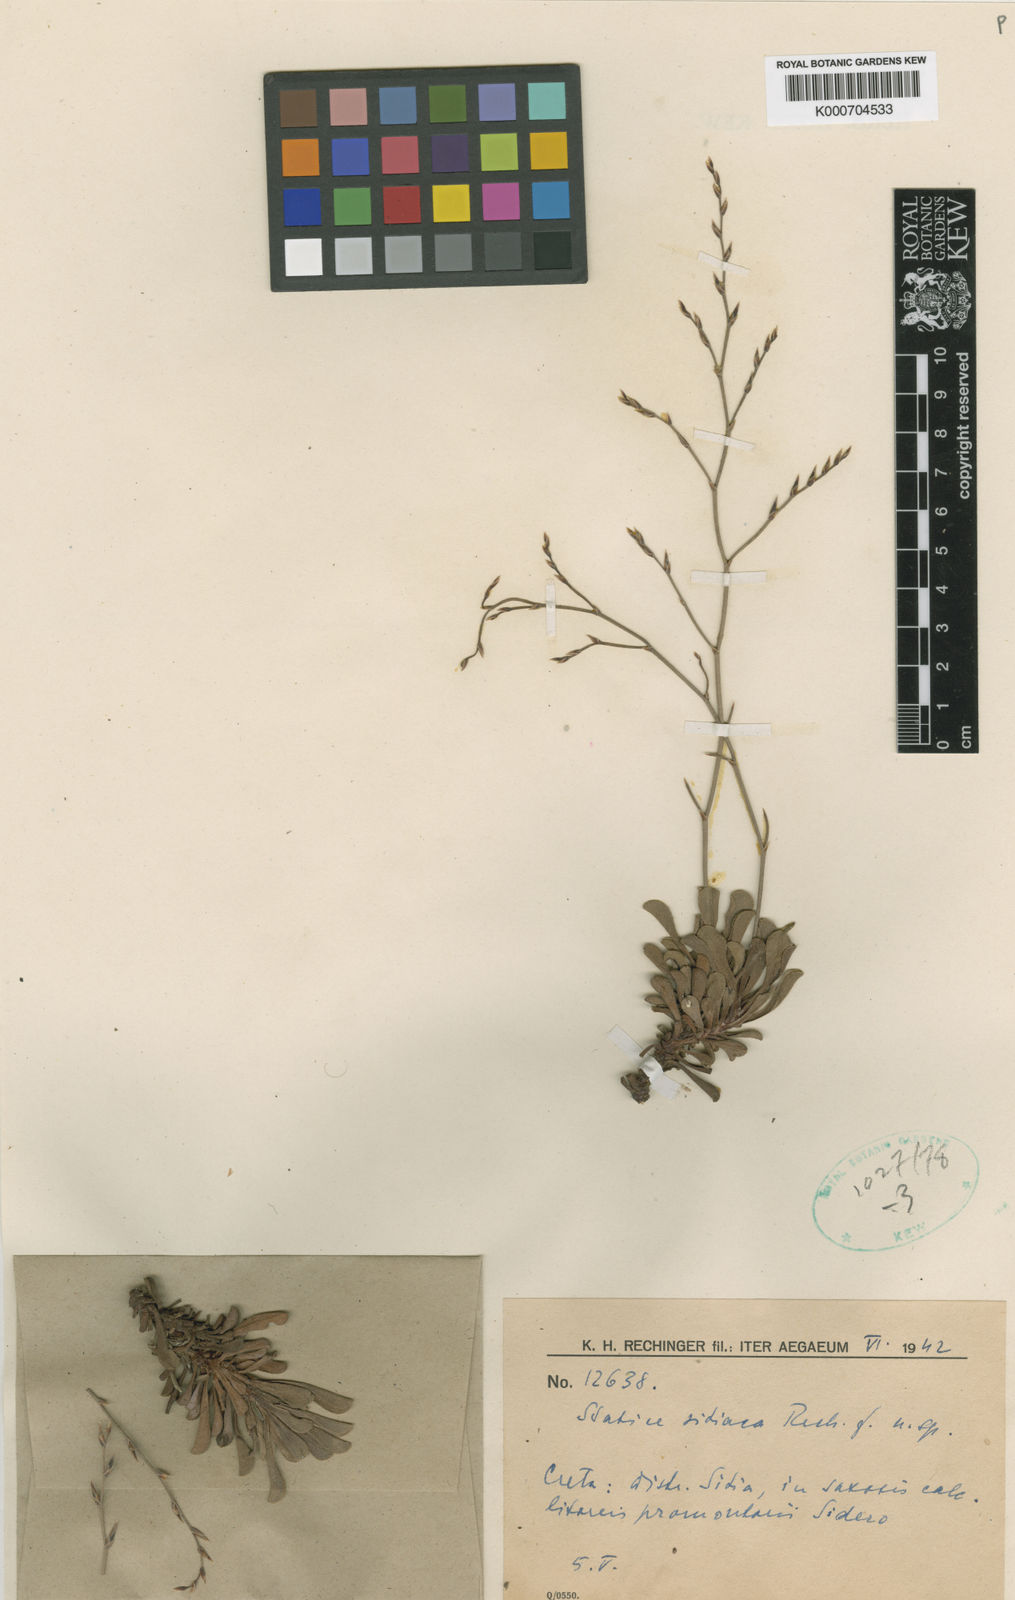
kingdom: Plantae
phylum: Tracheophyta
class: Magnoliopsida
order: Caryophyllales
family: Plumbaginaceae
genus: Limonium
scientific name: Limonium sitiacum
